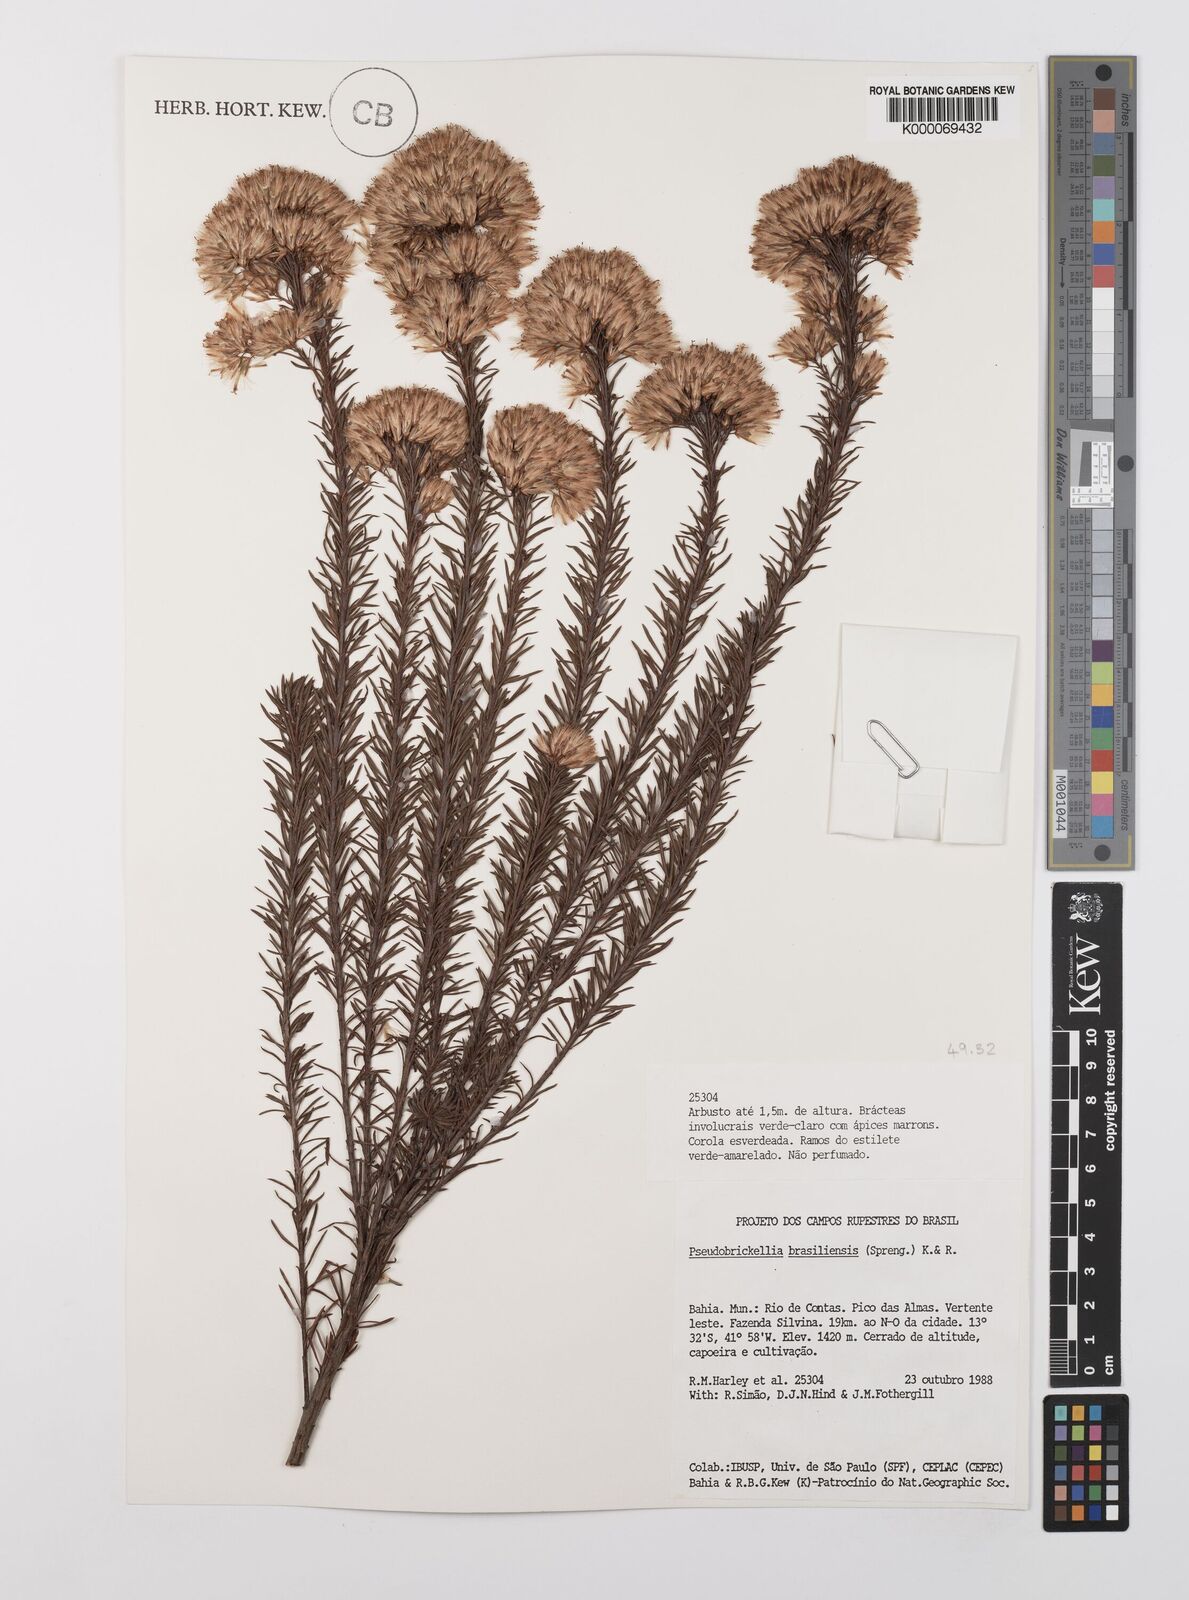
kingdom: Plantae
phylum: Tracheophyta
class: Magnoliopsida
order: Asterales
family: Asteraceae
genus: Pseudobrickellia
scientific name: Pseudobrickellia brasiliensis
